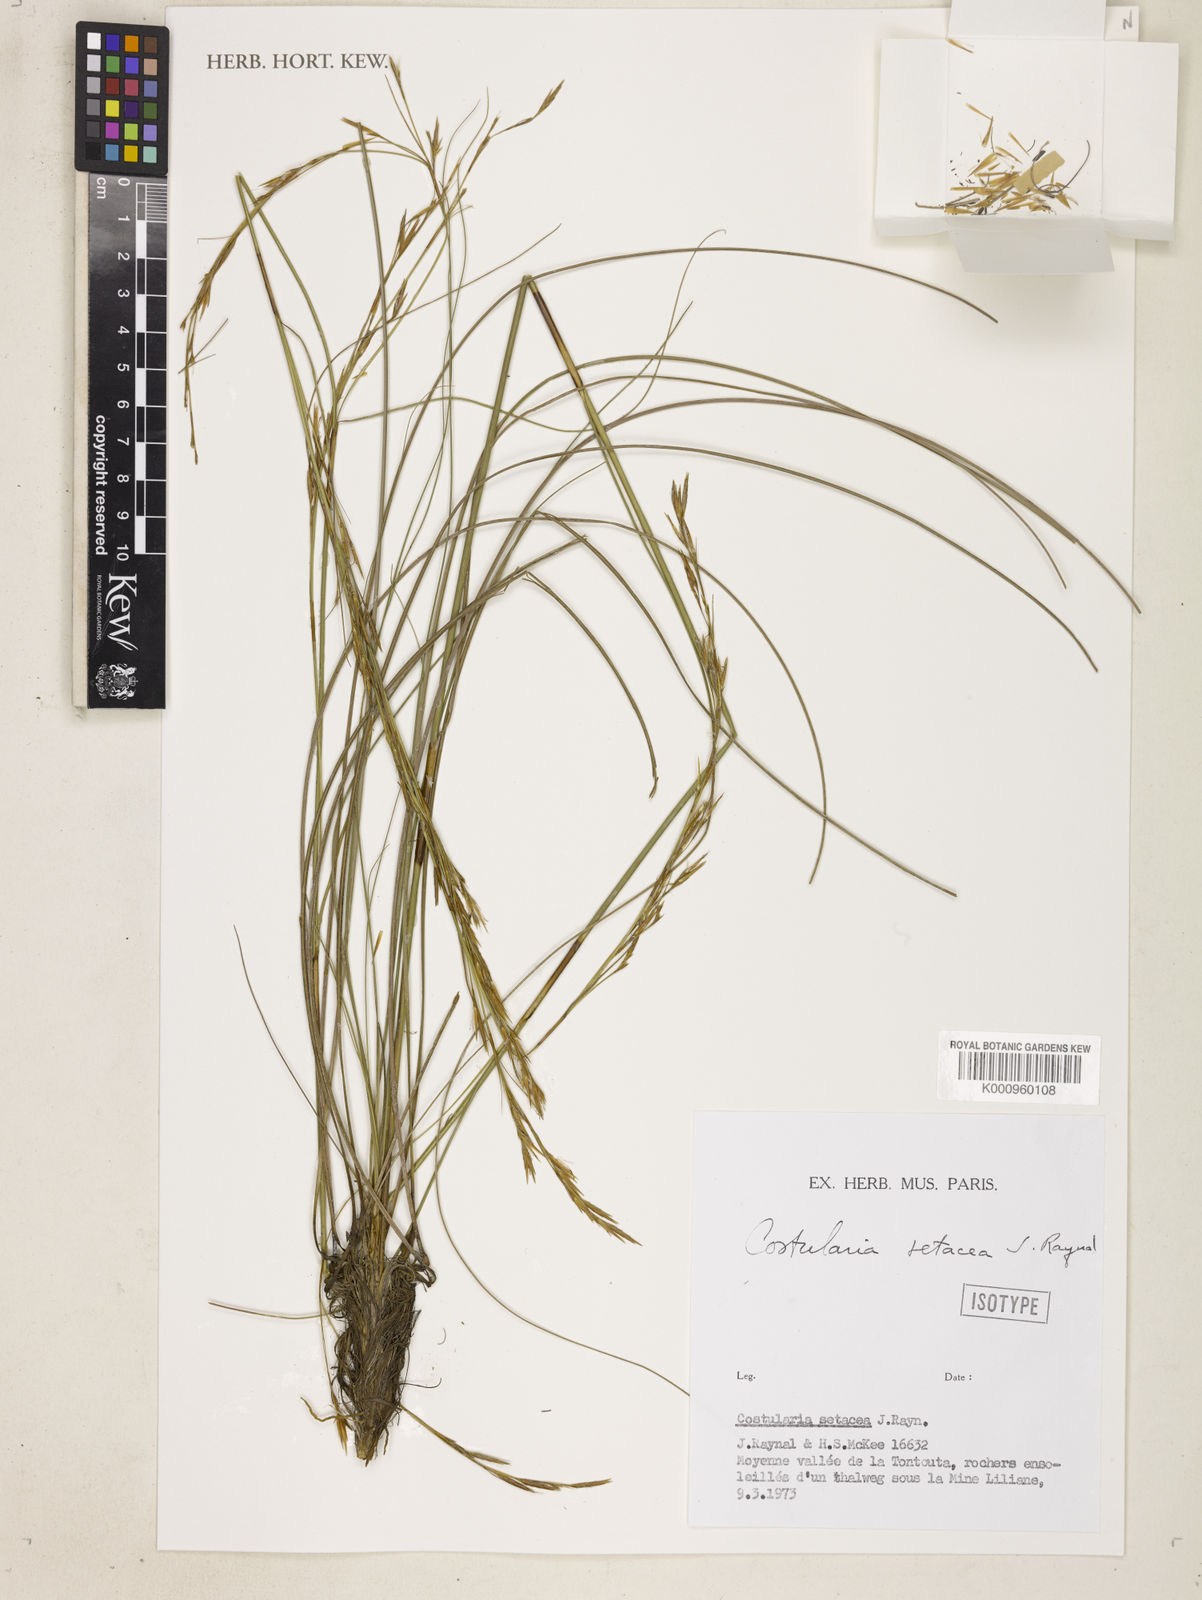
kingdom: Plantae
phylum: Tracheophyta
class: Liliopsida
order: Poales
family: Cyperaceae
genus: Tetraria
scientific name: Tetraria setacea
